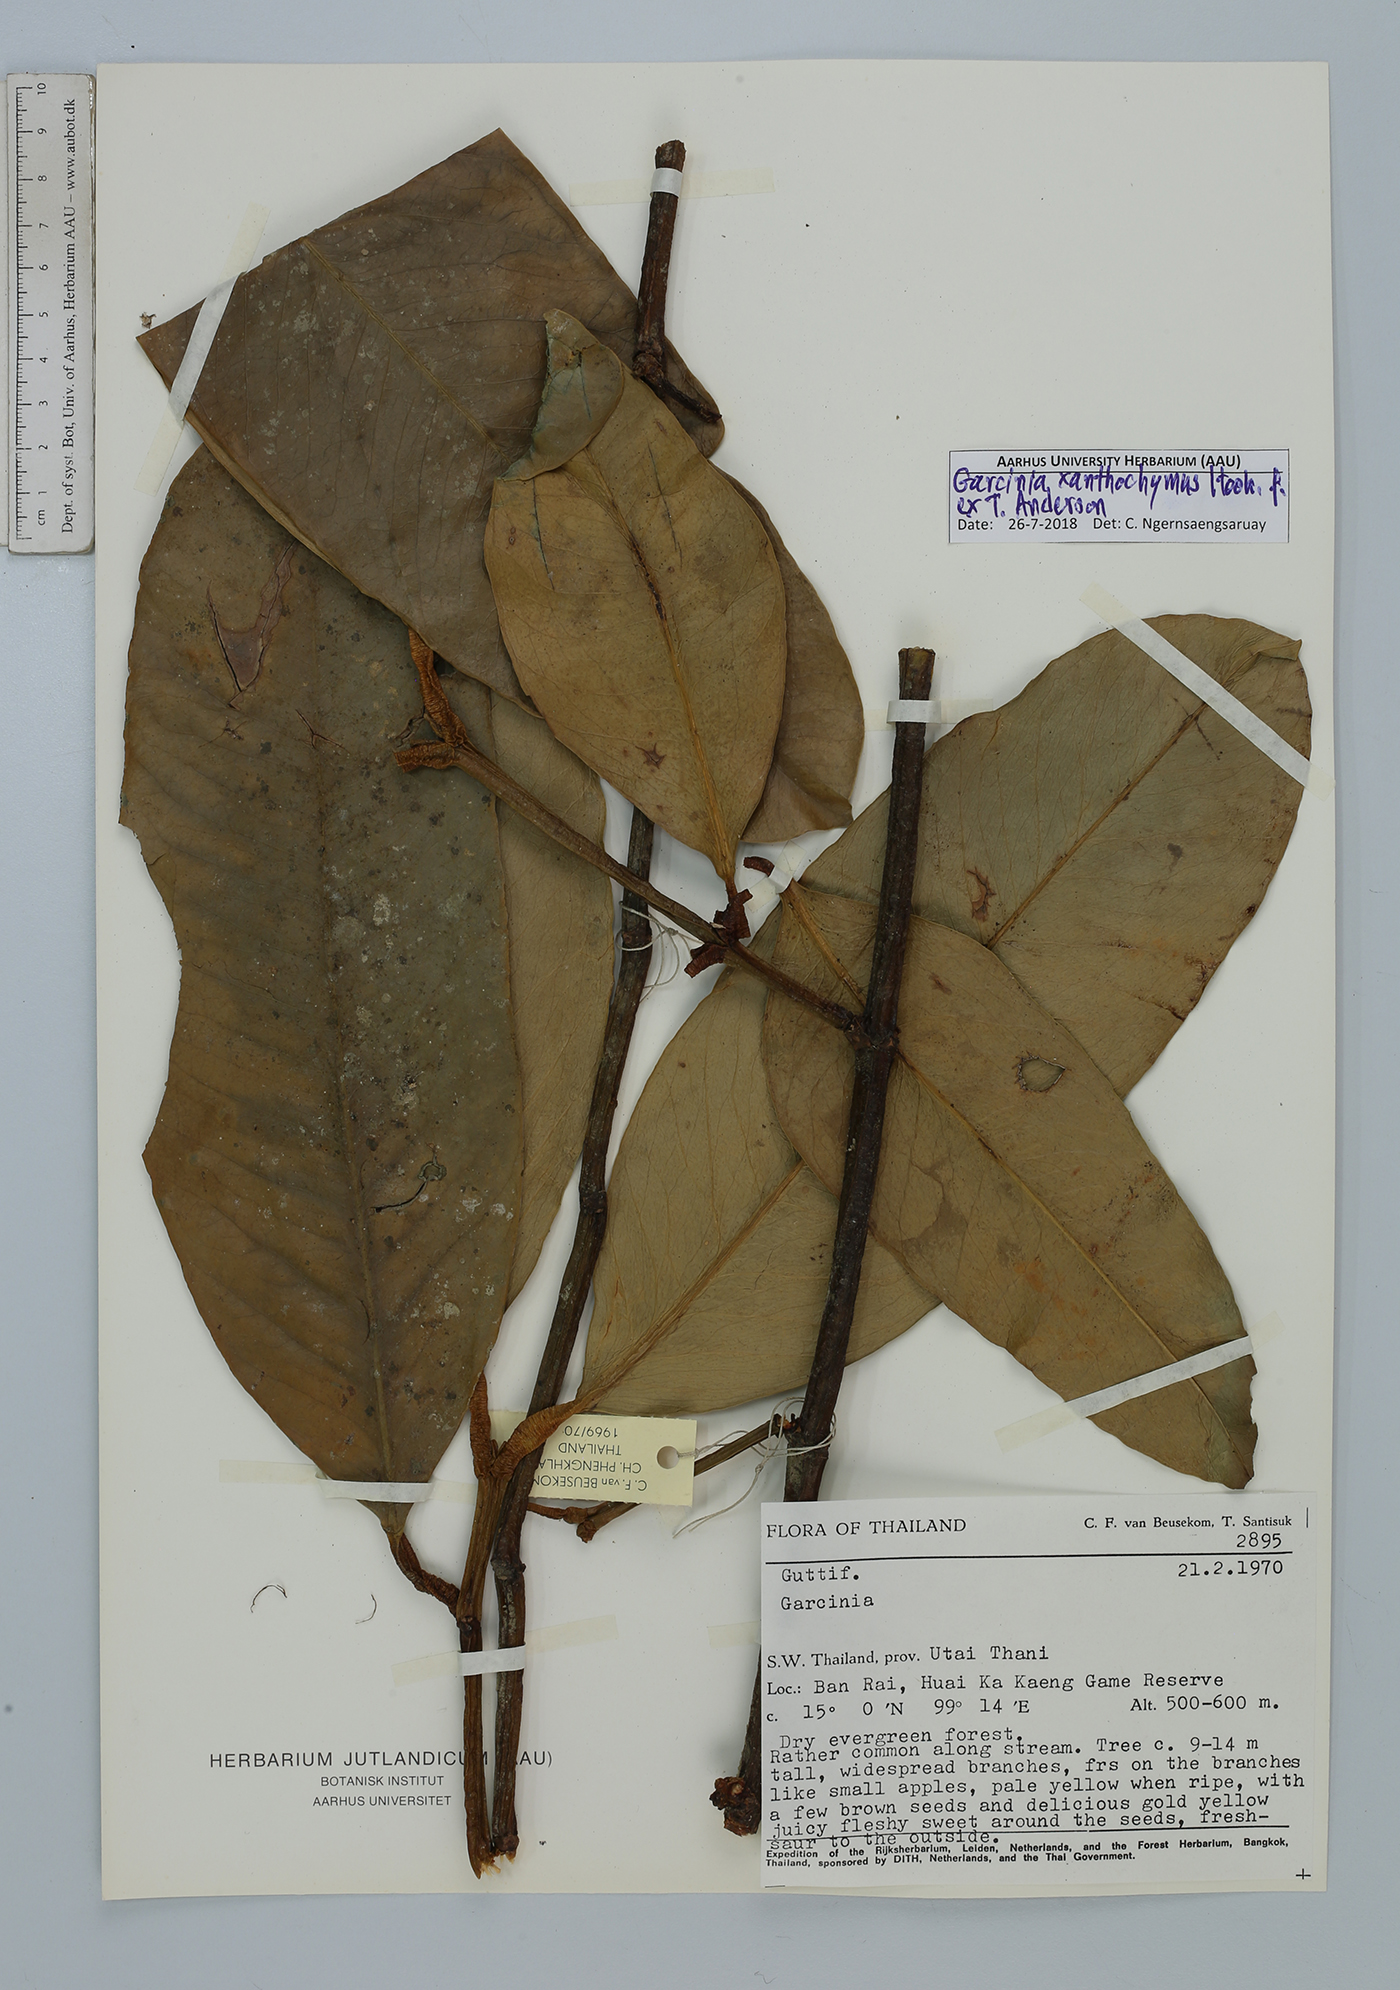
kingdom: Plantae
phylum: Tracheophyta
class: Magnoliopsida
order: Malpighiales
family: Clusiaceae
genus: Garcinia
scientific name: Garcinia xanthochymus
